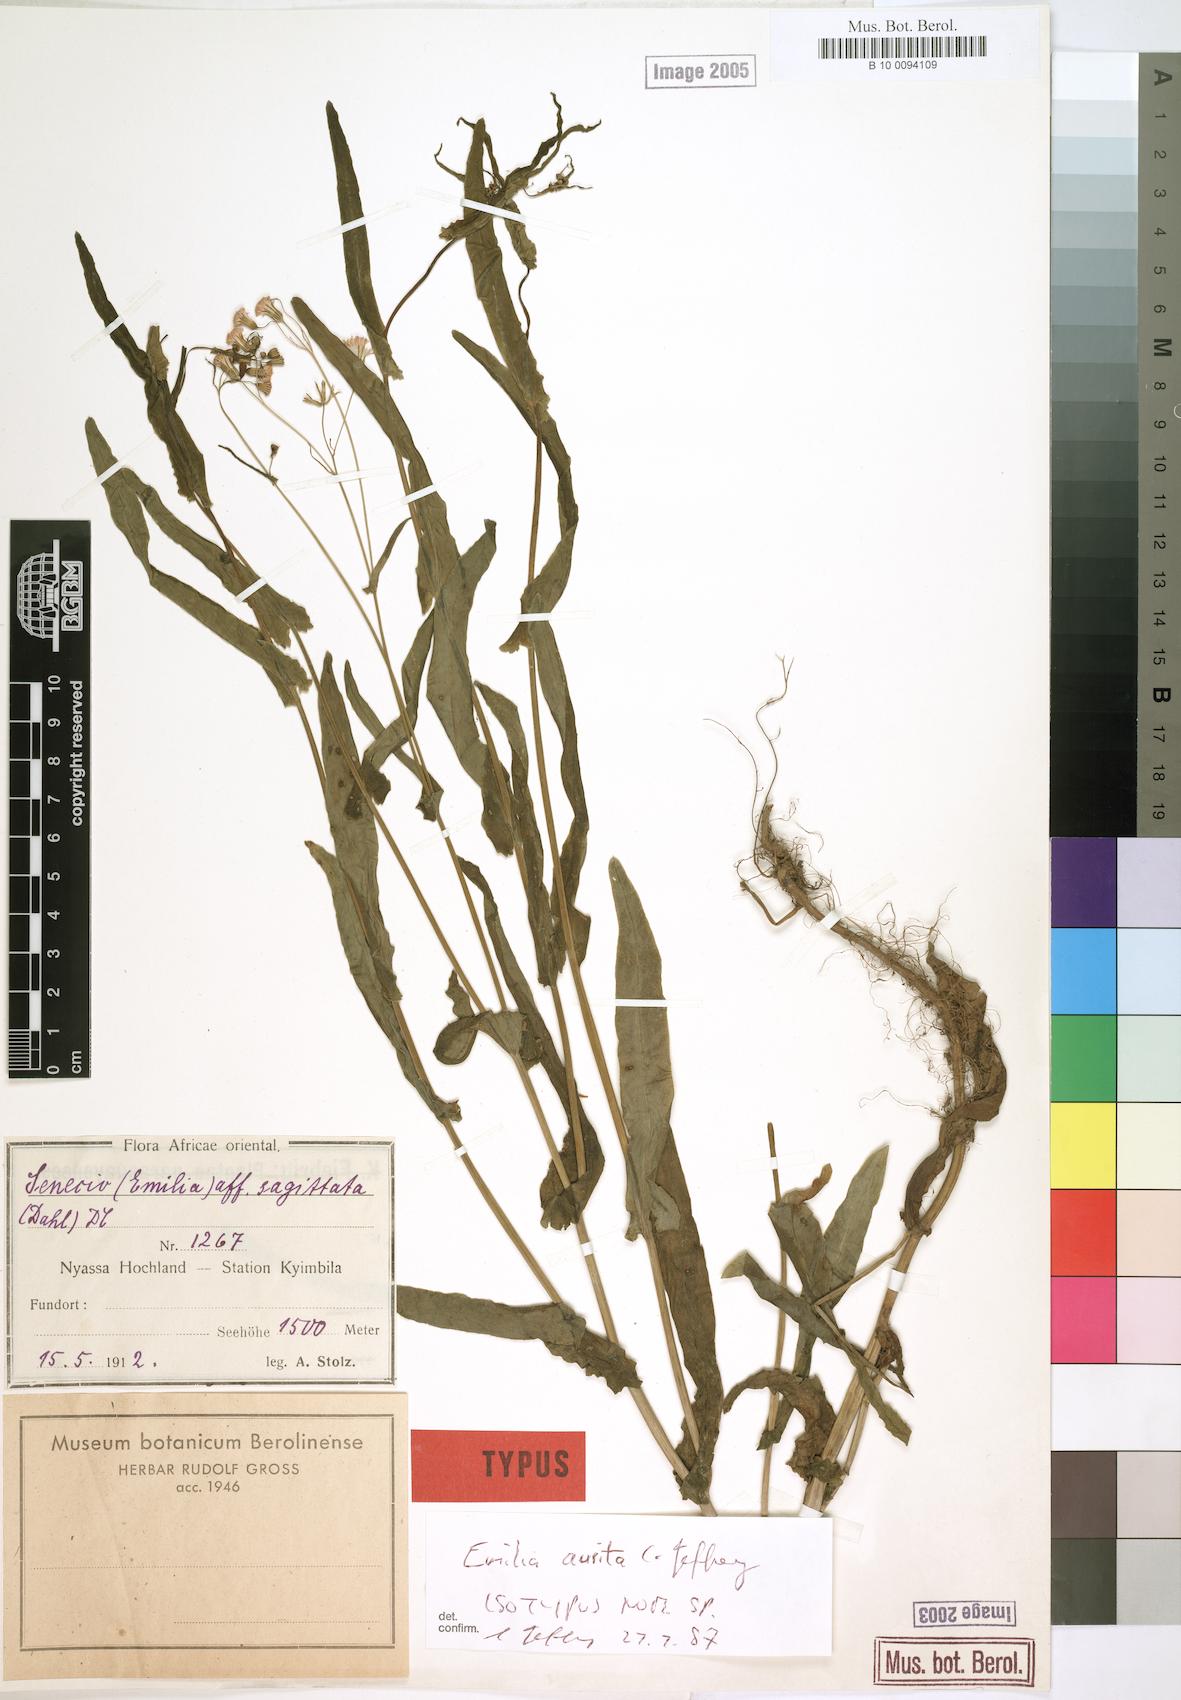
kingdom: Plantae
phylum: Tracheophyta
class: Magnoliopsida
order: Asterales
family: Asteraceae
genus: Emilia
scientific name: Emilia aurita
